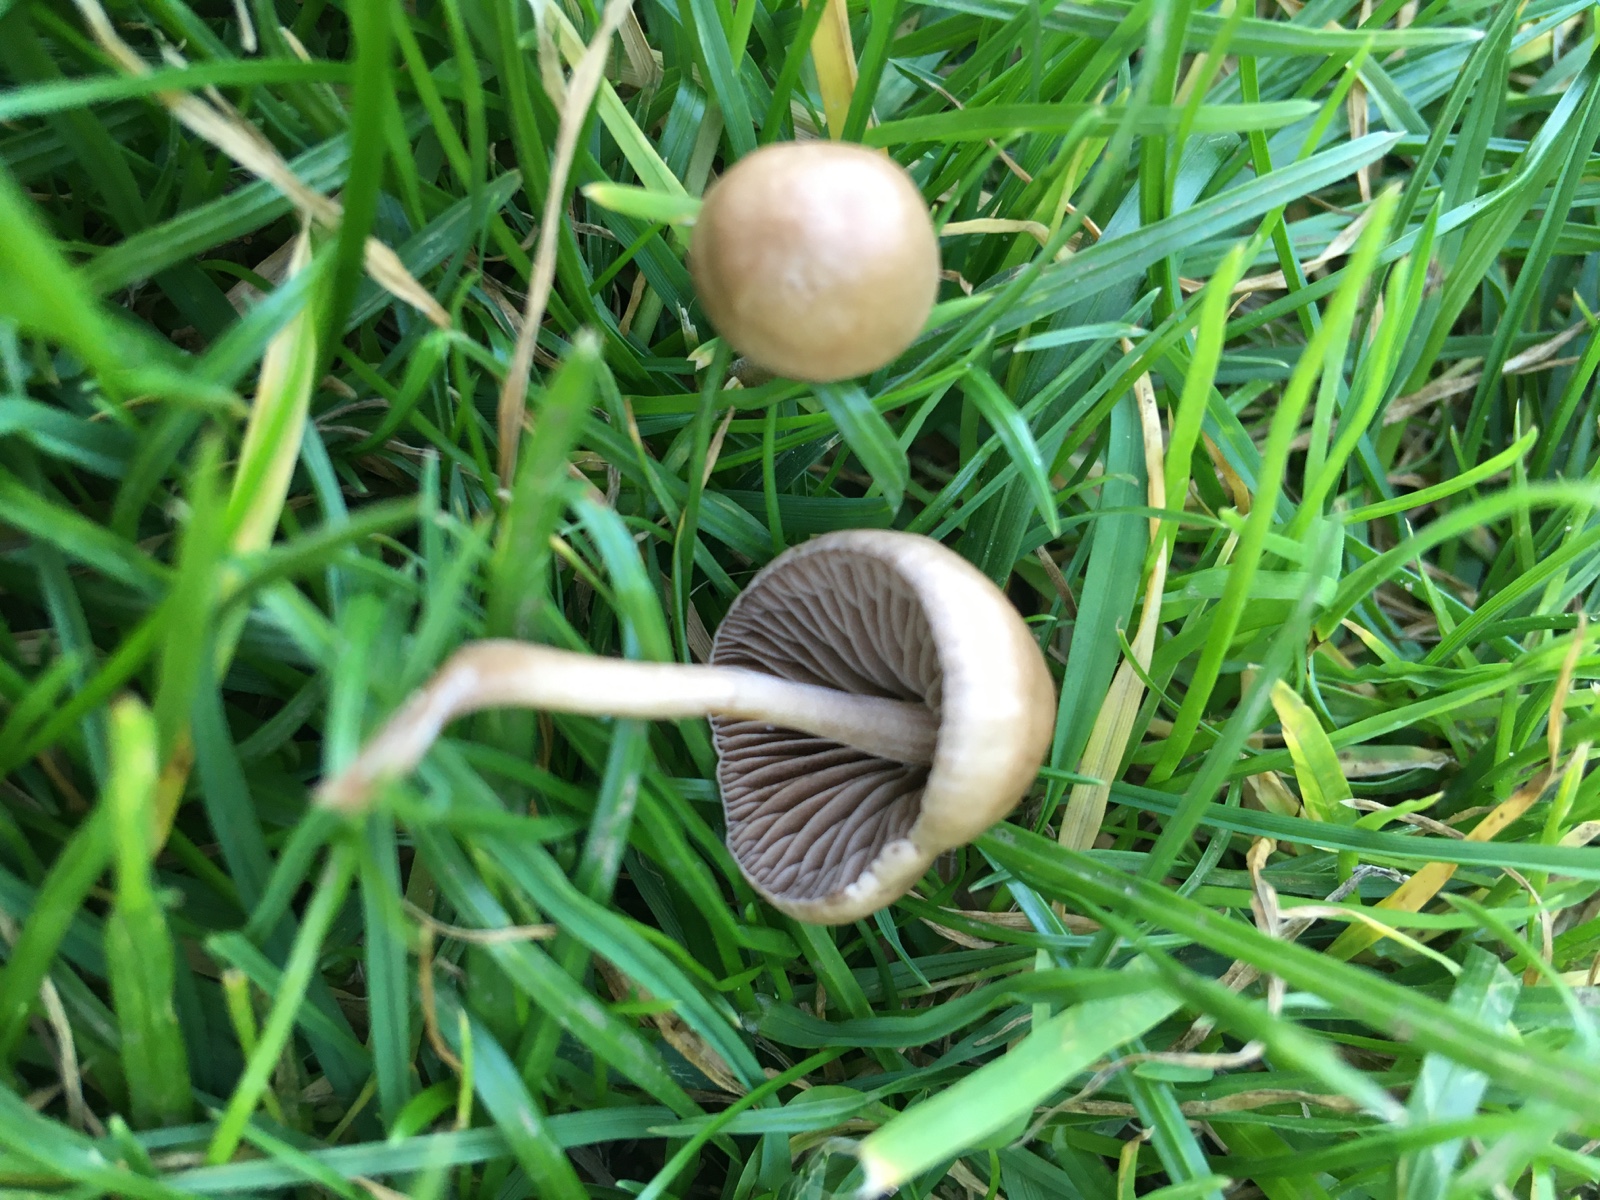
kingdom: Fungi
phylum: Basidiomycota
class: Agaricomycetes
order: Agaricales
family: Bolbitiaceae
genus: Panaeolina
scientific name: Panaeolina foenisecii
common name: høslætsvamp
